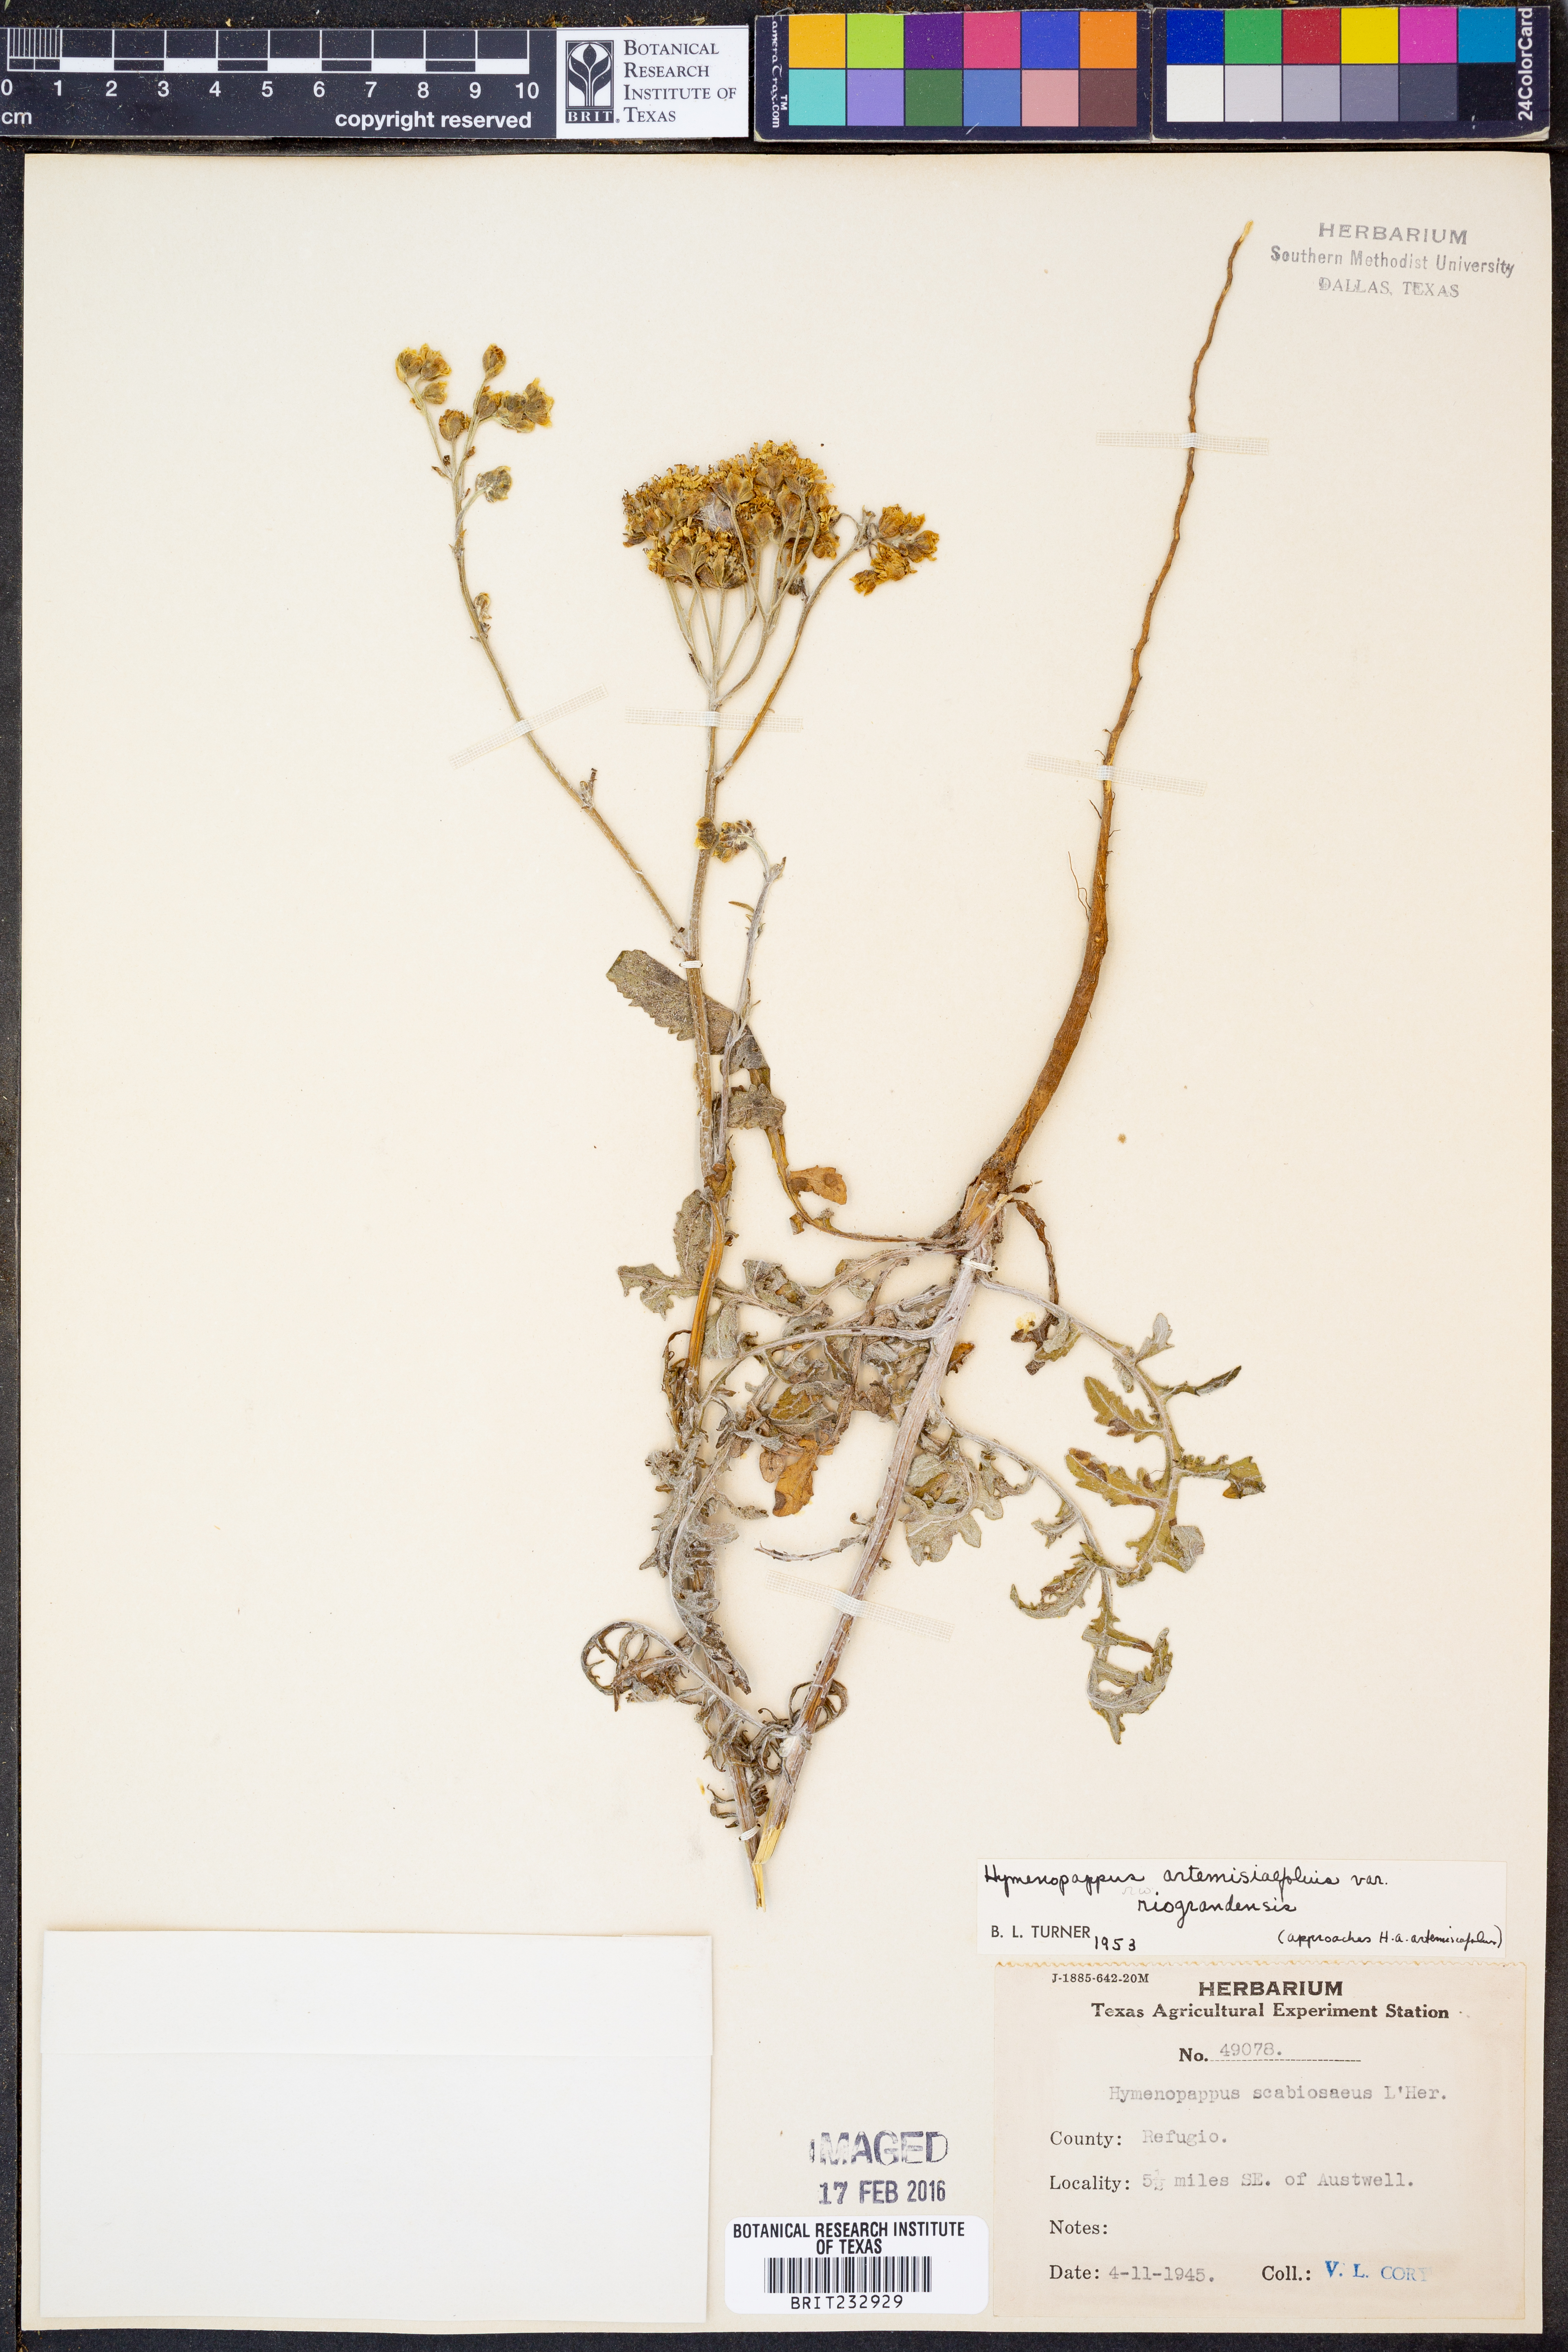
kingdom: Plantae
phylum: Tracheophyta
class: Magnoliopsida
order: Asterales
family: Asteraceae
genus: Hymenopappus
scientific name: Hymenopappus artemisiifolius
